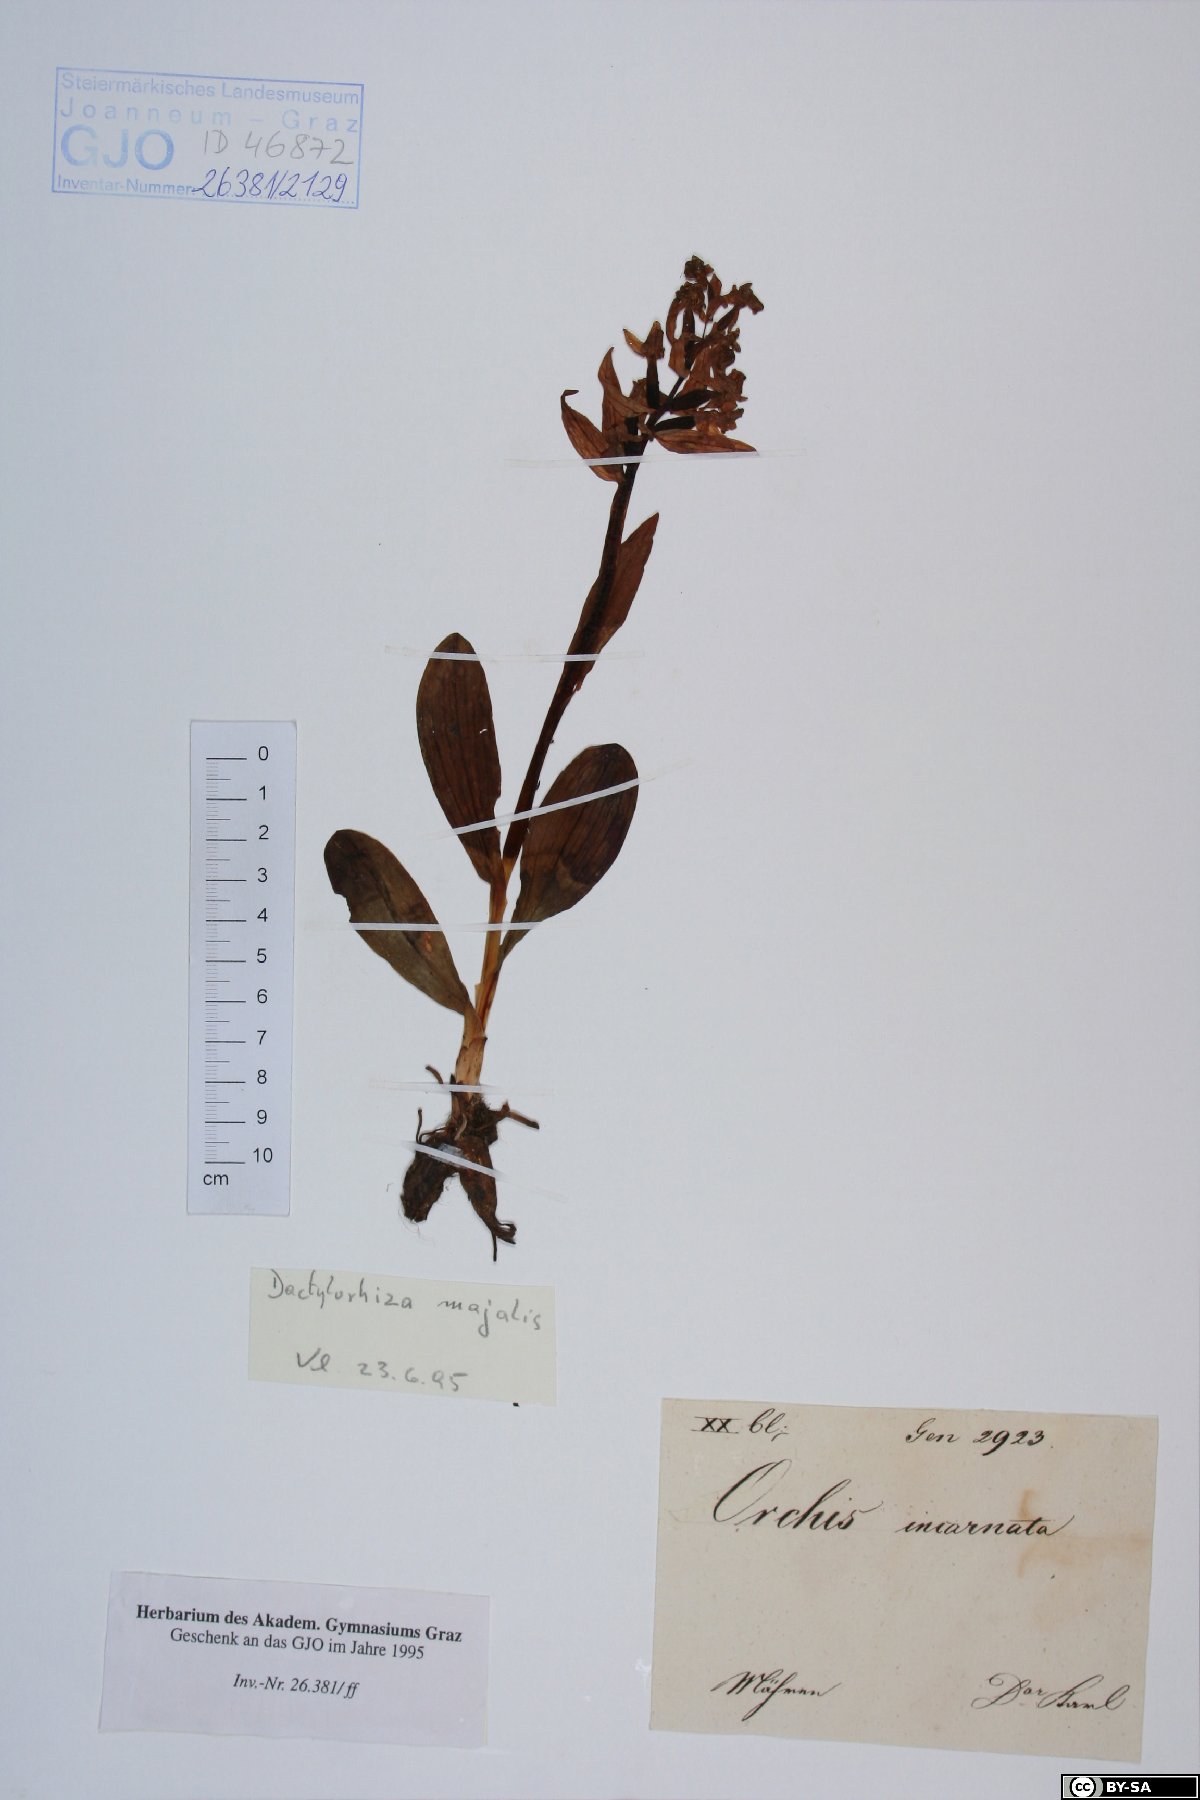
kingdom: Plantae
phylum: Tracheophyta
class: Liliopsida
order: Asparagales
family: Orchidaceae
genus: Dactylorhiza
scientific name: Dactylorhiza majalis
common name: Marsh orchid
